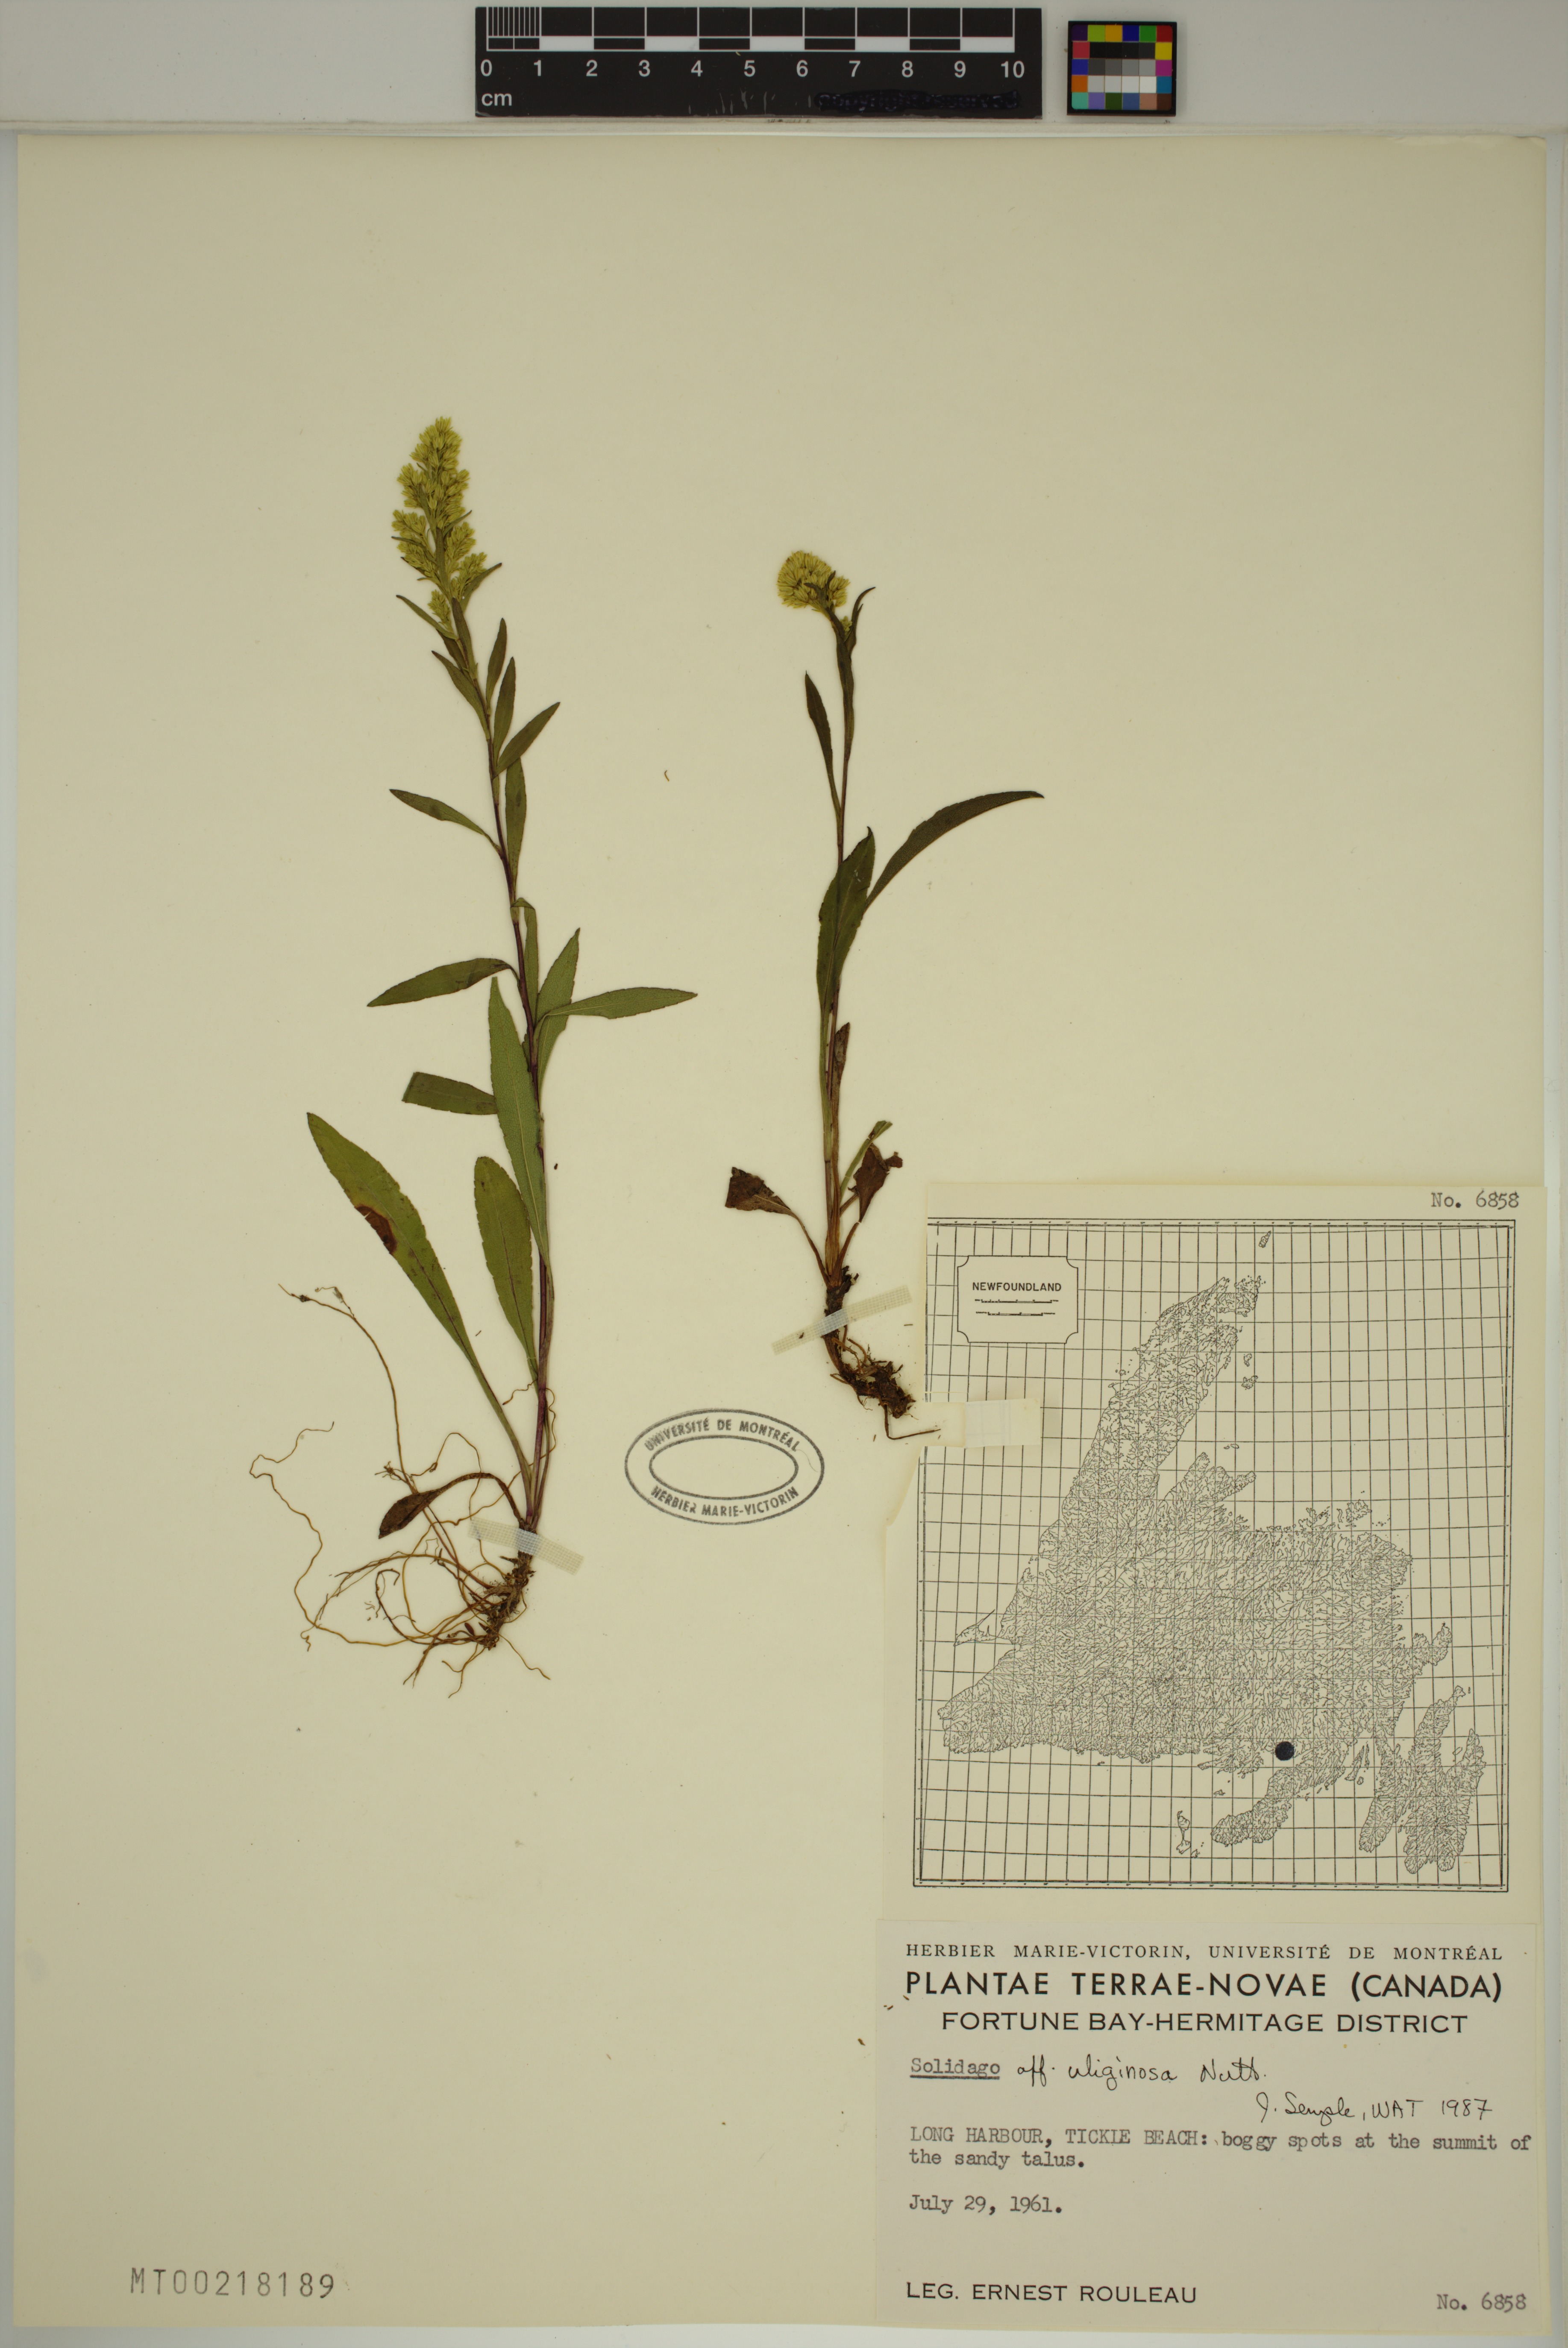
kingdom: Plantae
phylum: Tracheophyta
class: Magnoliopsida
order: Asterales
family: Asteraceae
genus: Solidago
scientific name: Solidago uliginosa
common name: Bog goldenrod
